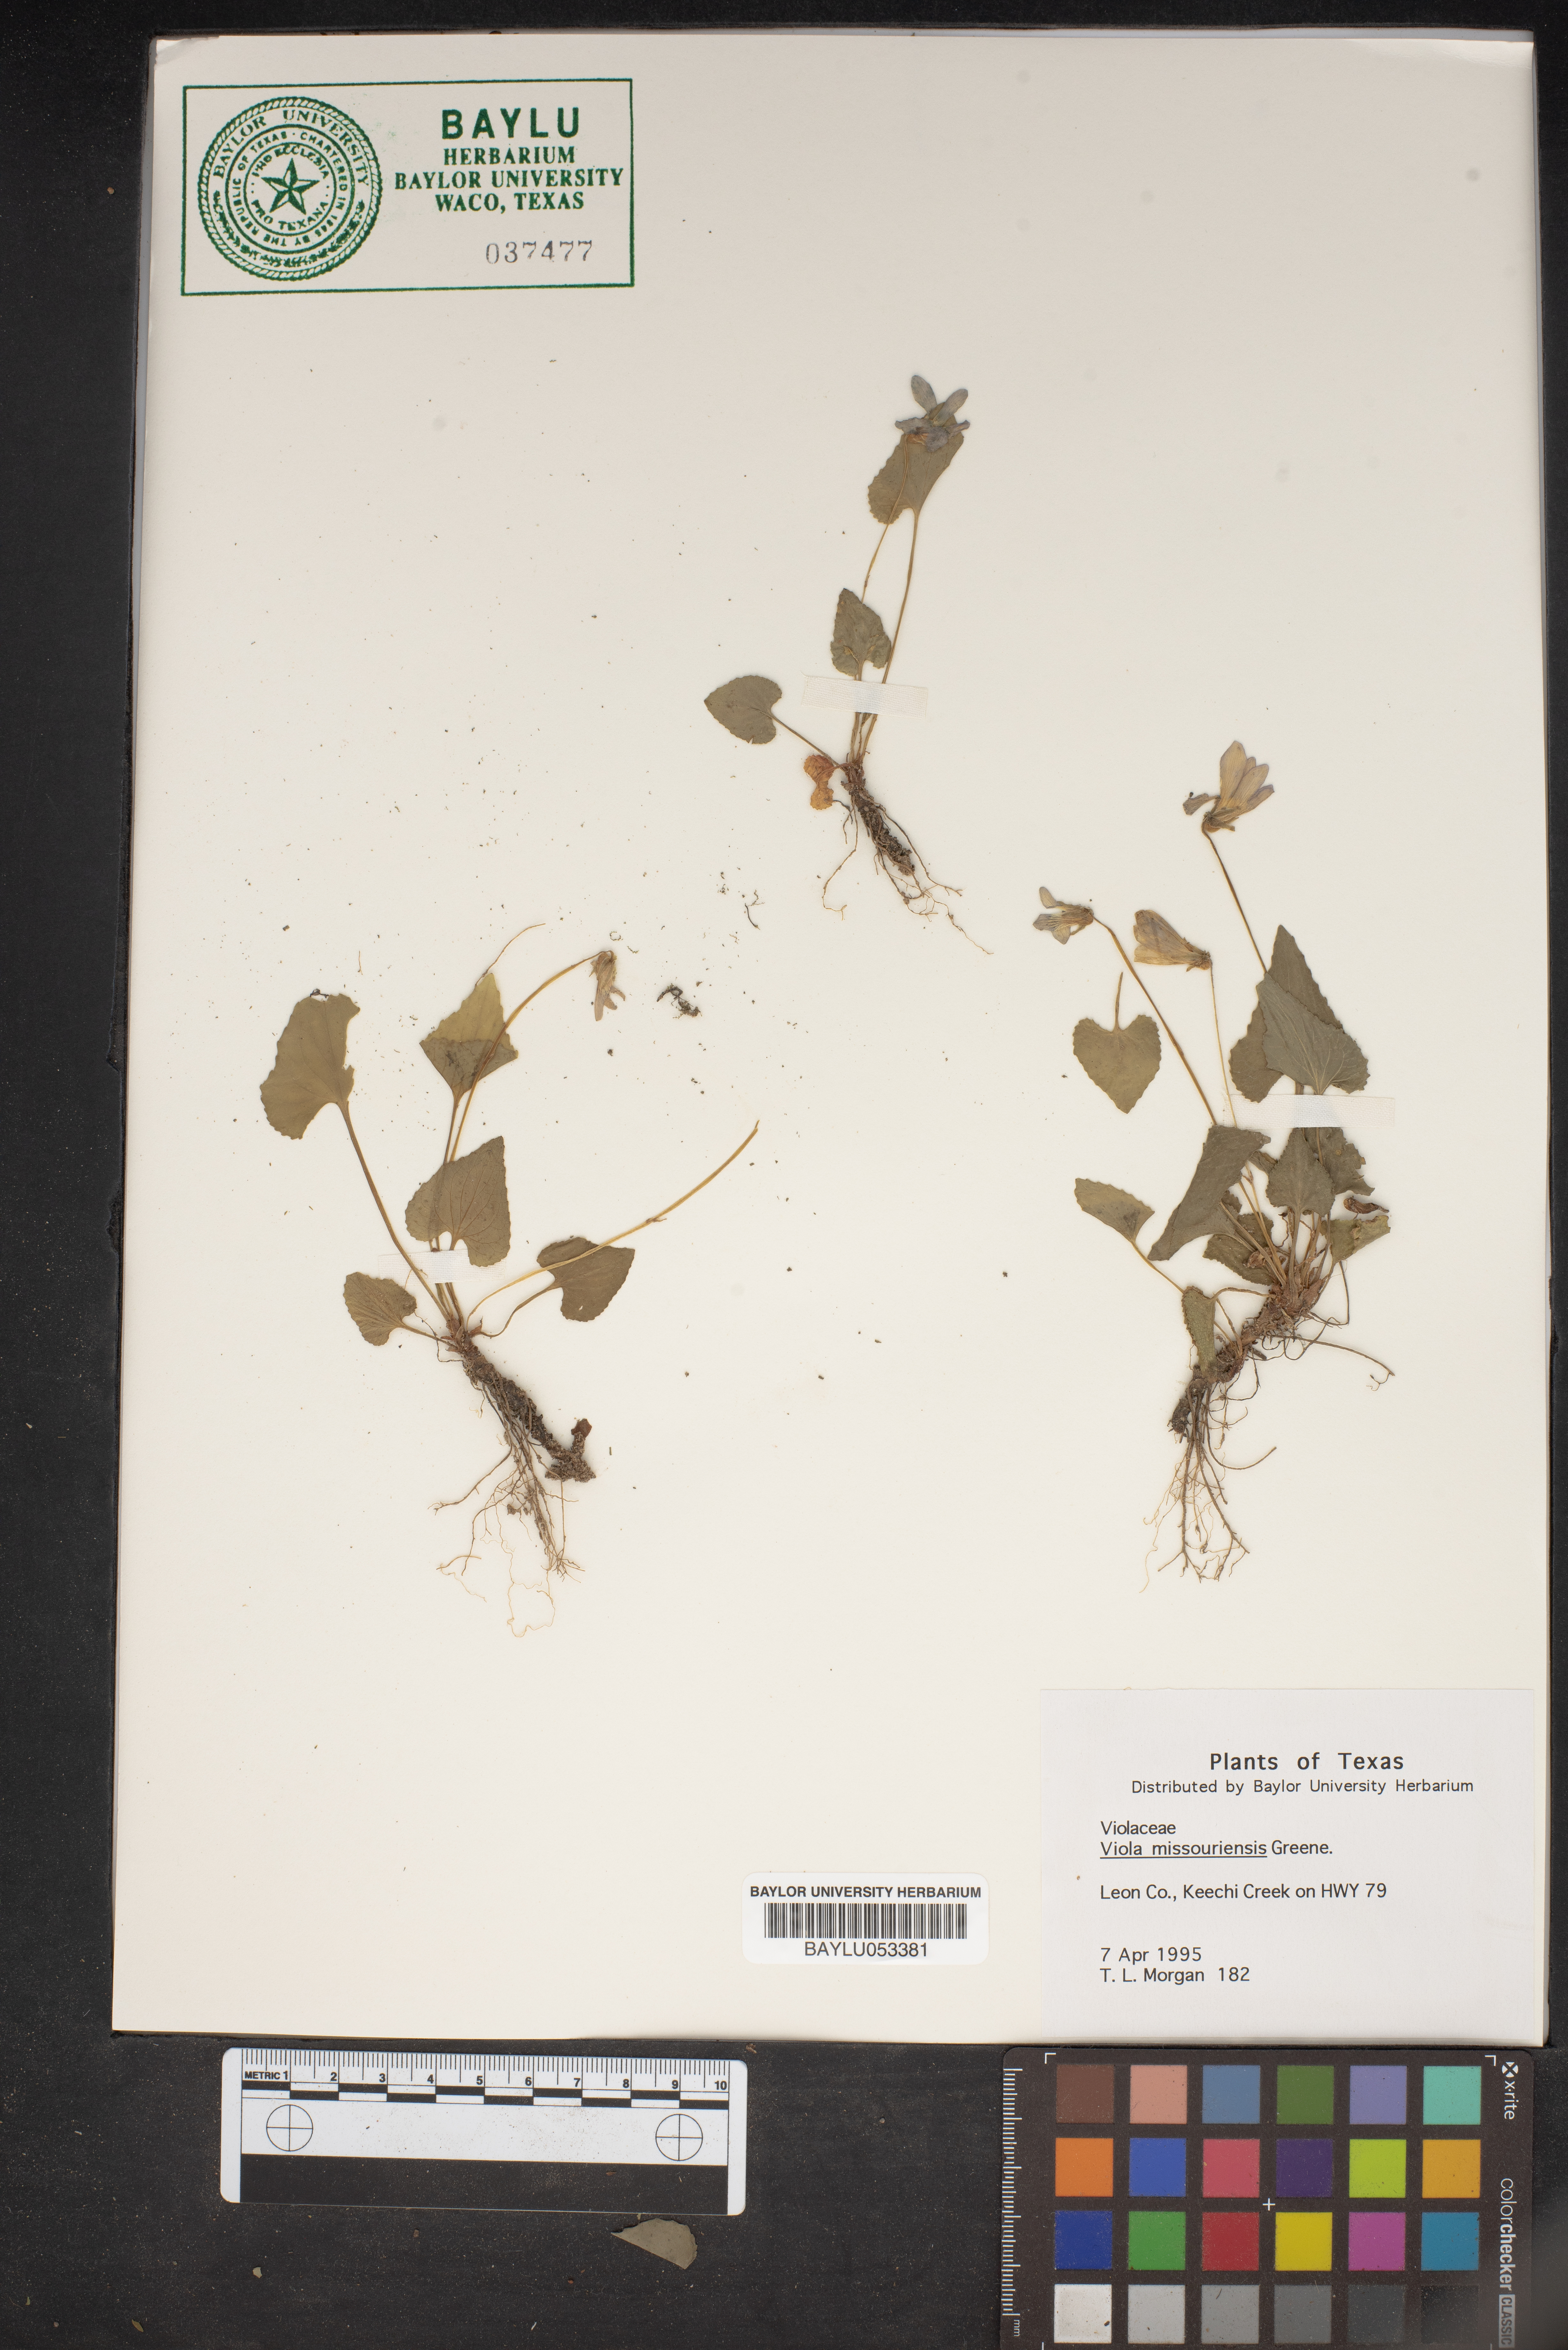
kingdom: Plantae
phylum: Tracheophyta
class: Magnoliopsida
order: Malpighiales
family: Violaceae
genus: Viola
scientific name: Viola missouriensis
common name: Missouri violet
